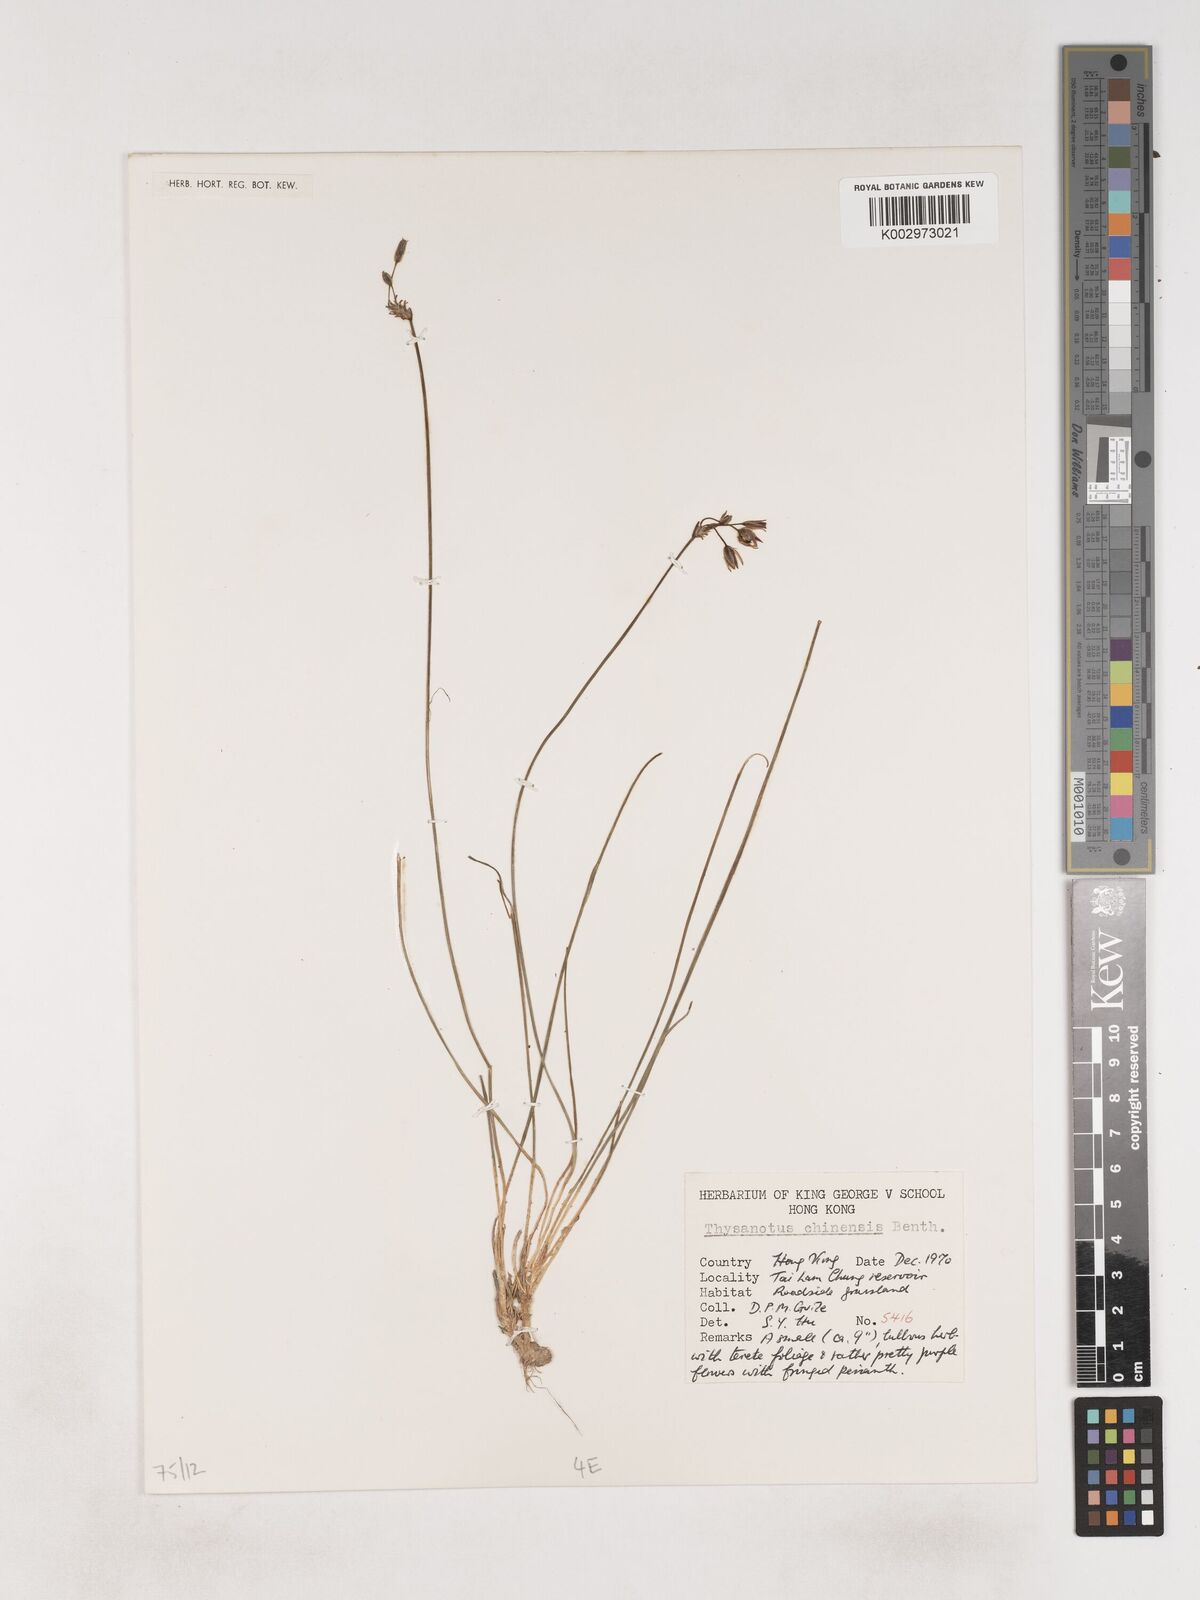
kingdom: Plantae
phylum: Tracheophyta
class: Liliopsida
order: Asparagales
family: Asparagaceae
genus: Thysanotus
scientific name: Thysanotus chinensis
